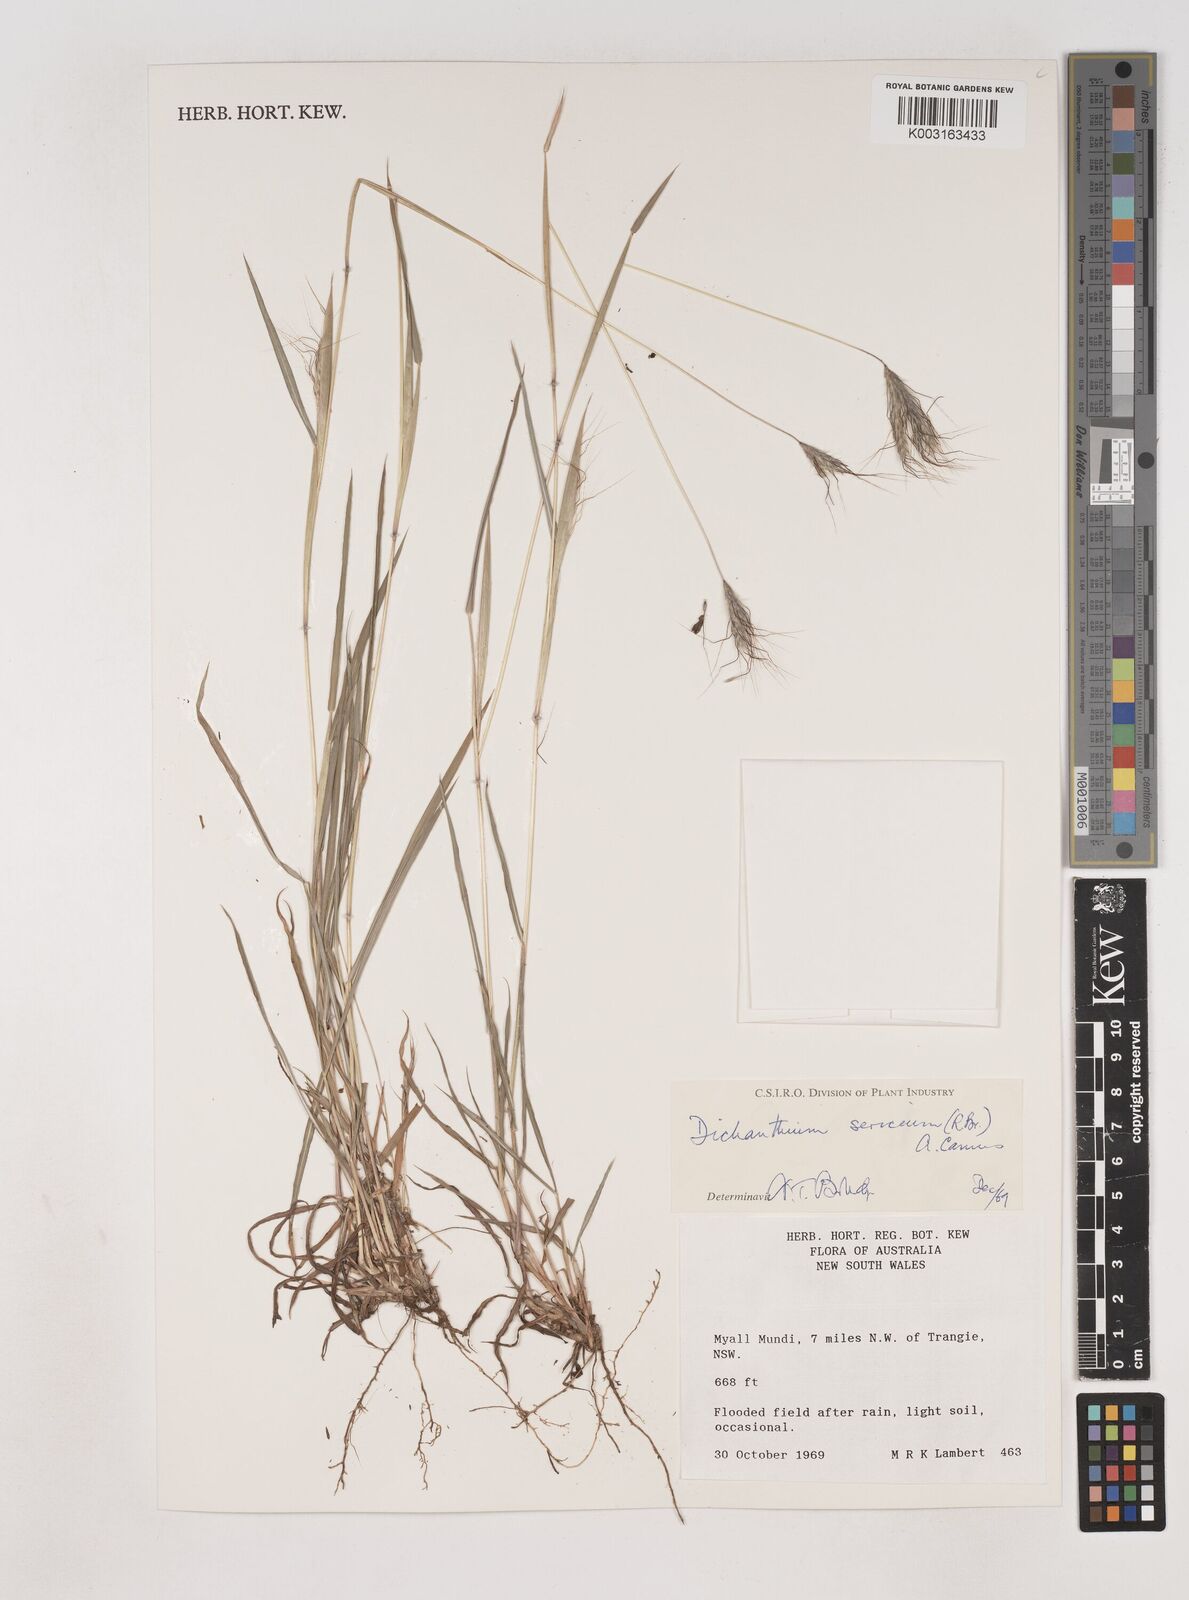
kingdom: Plantae
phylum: Tracheophyta
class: Liliopsida
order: Poales
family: Poaceae
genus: Dichanthium
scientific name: Dichanthium sericeum
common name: Silky bluestem
